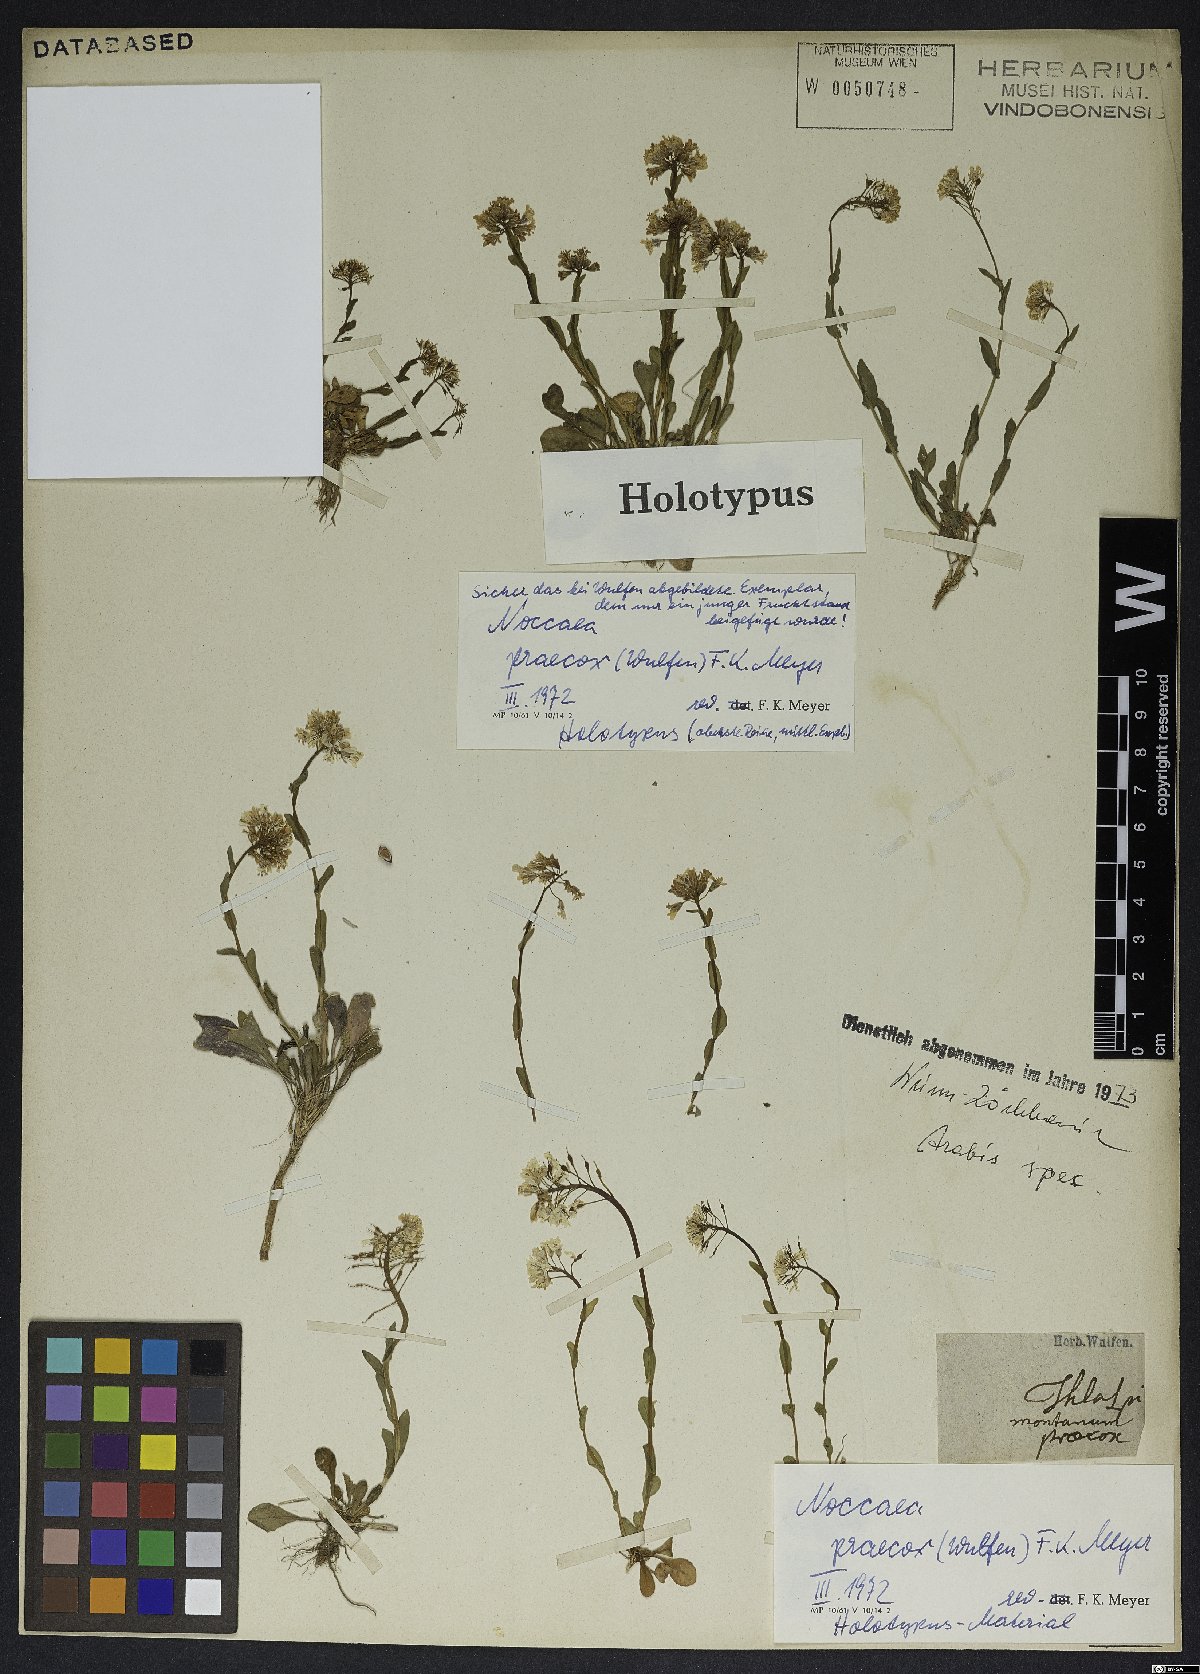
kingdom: Plantae
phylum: Tracheophyta
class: Magnoliopsida
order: Brassicales
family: Brassicaceae
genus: Noccaea
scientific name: Noccaea praecox
